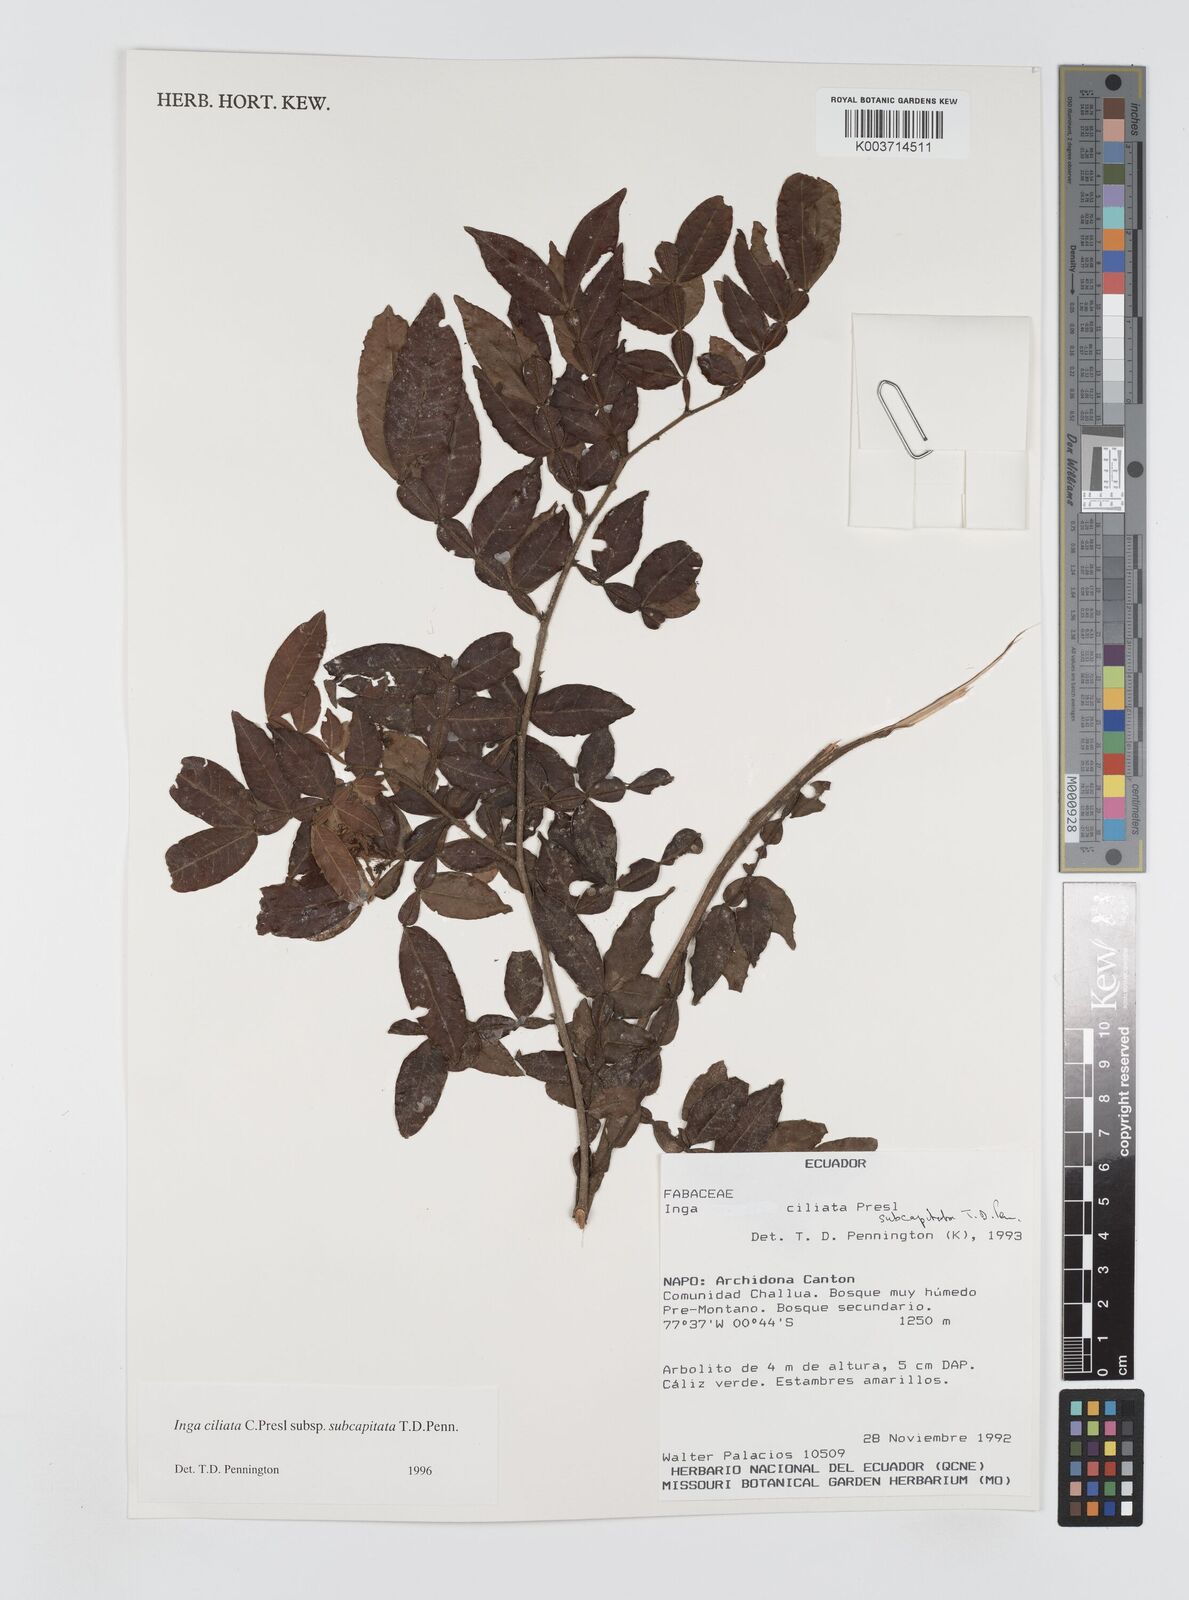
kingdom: Plantae
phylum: Tracheophyta
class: Magnoliopsida
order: Fabales
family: Fabaceae
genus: Inga
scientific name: Inga ciliata
